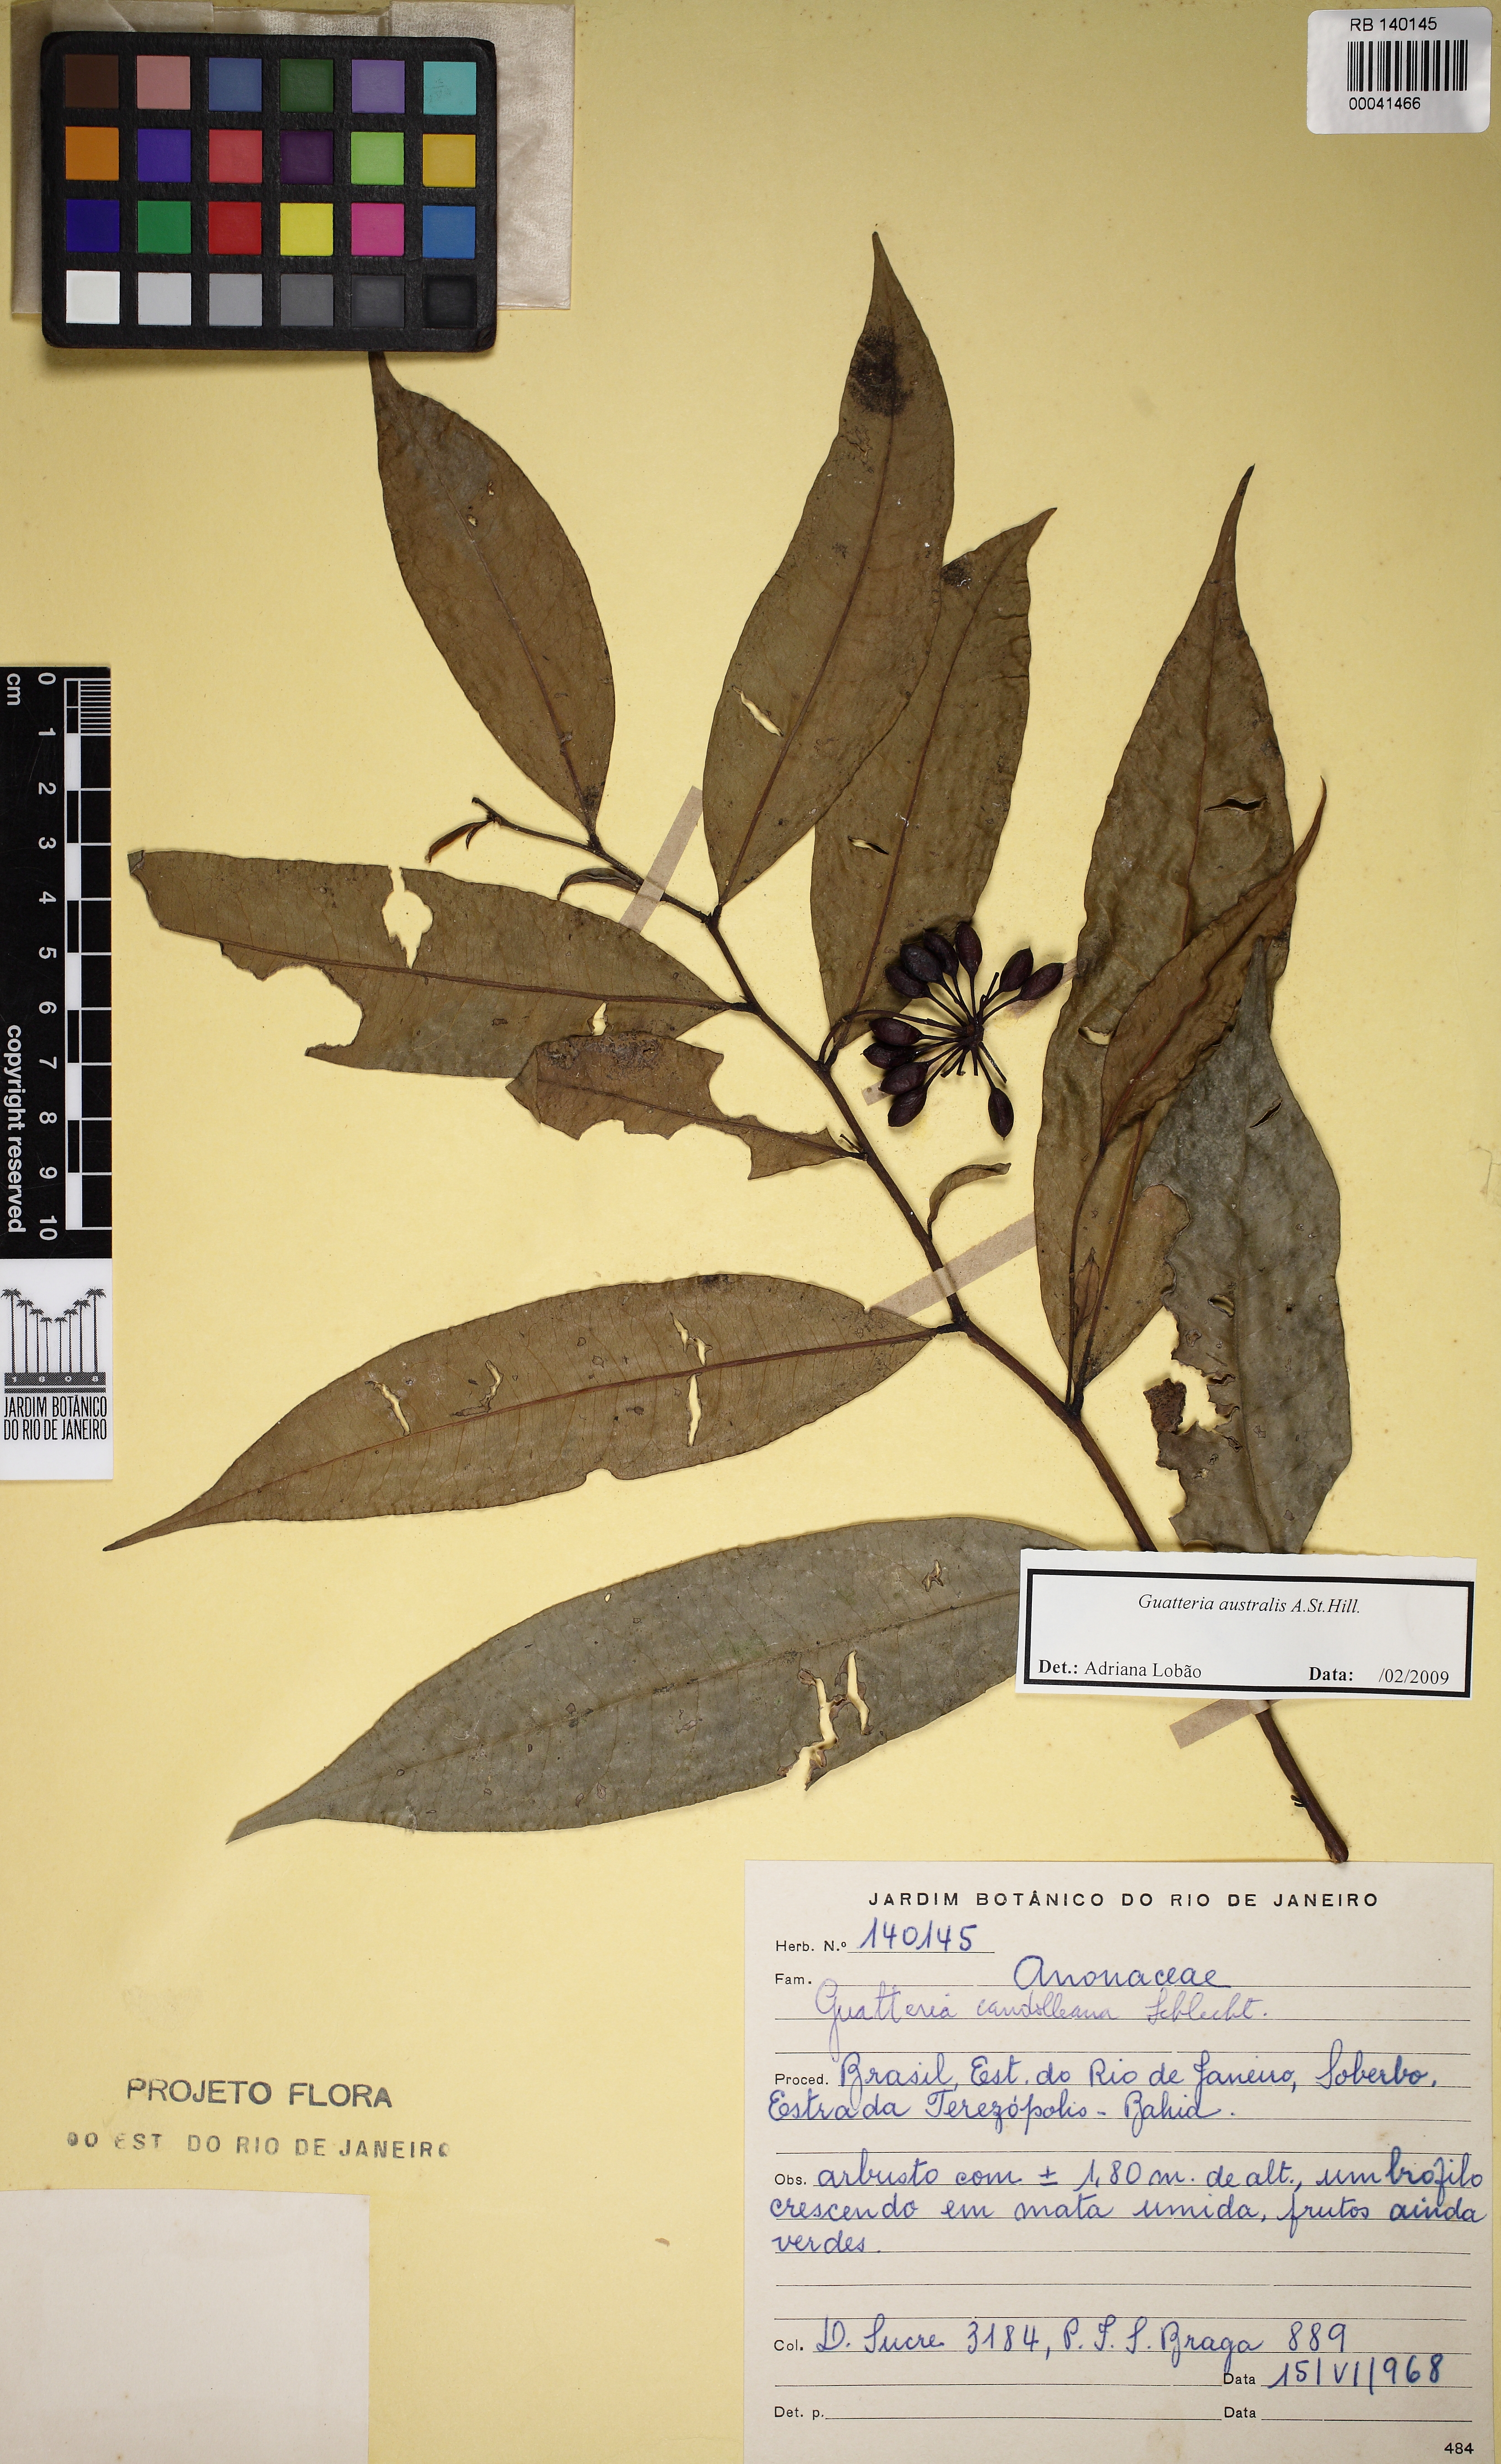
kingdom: Plantae
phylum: Tracheophyta
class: Magnoliopsida
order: Magnoliales
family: Annonaceae
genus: Guatteria
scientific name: Guatteria australis
